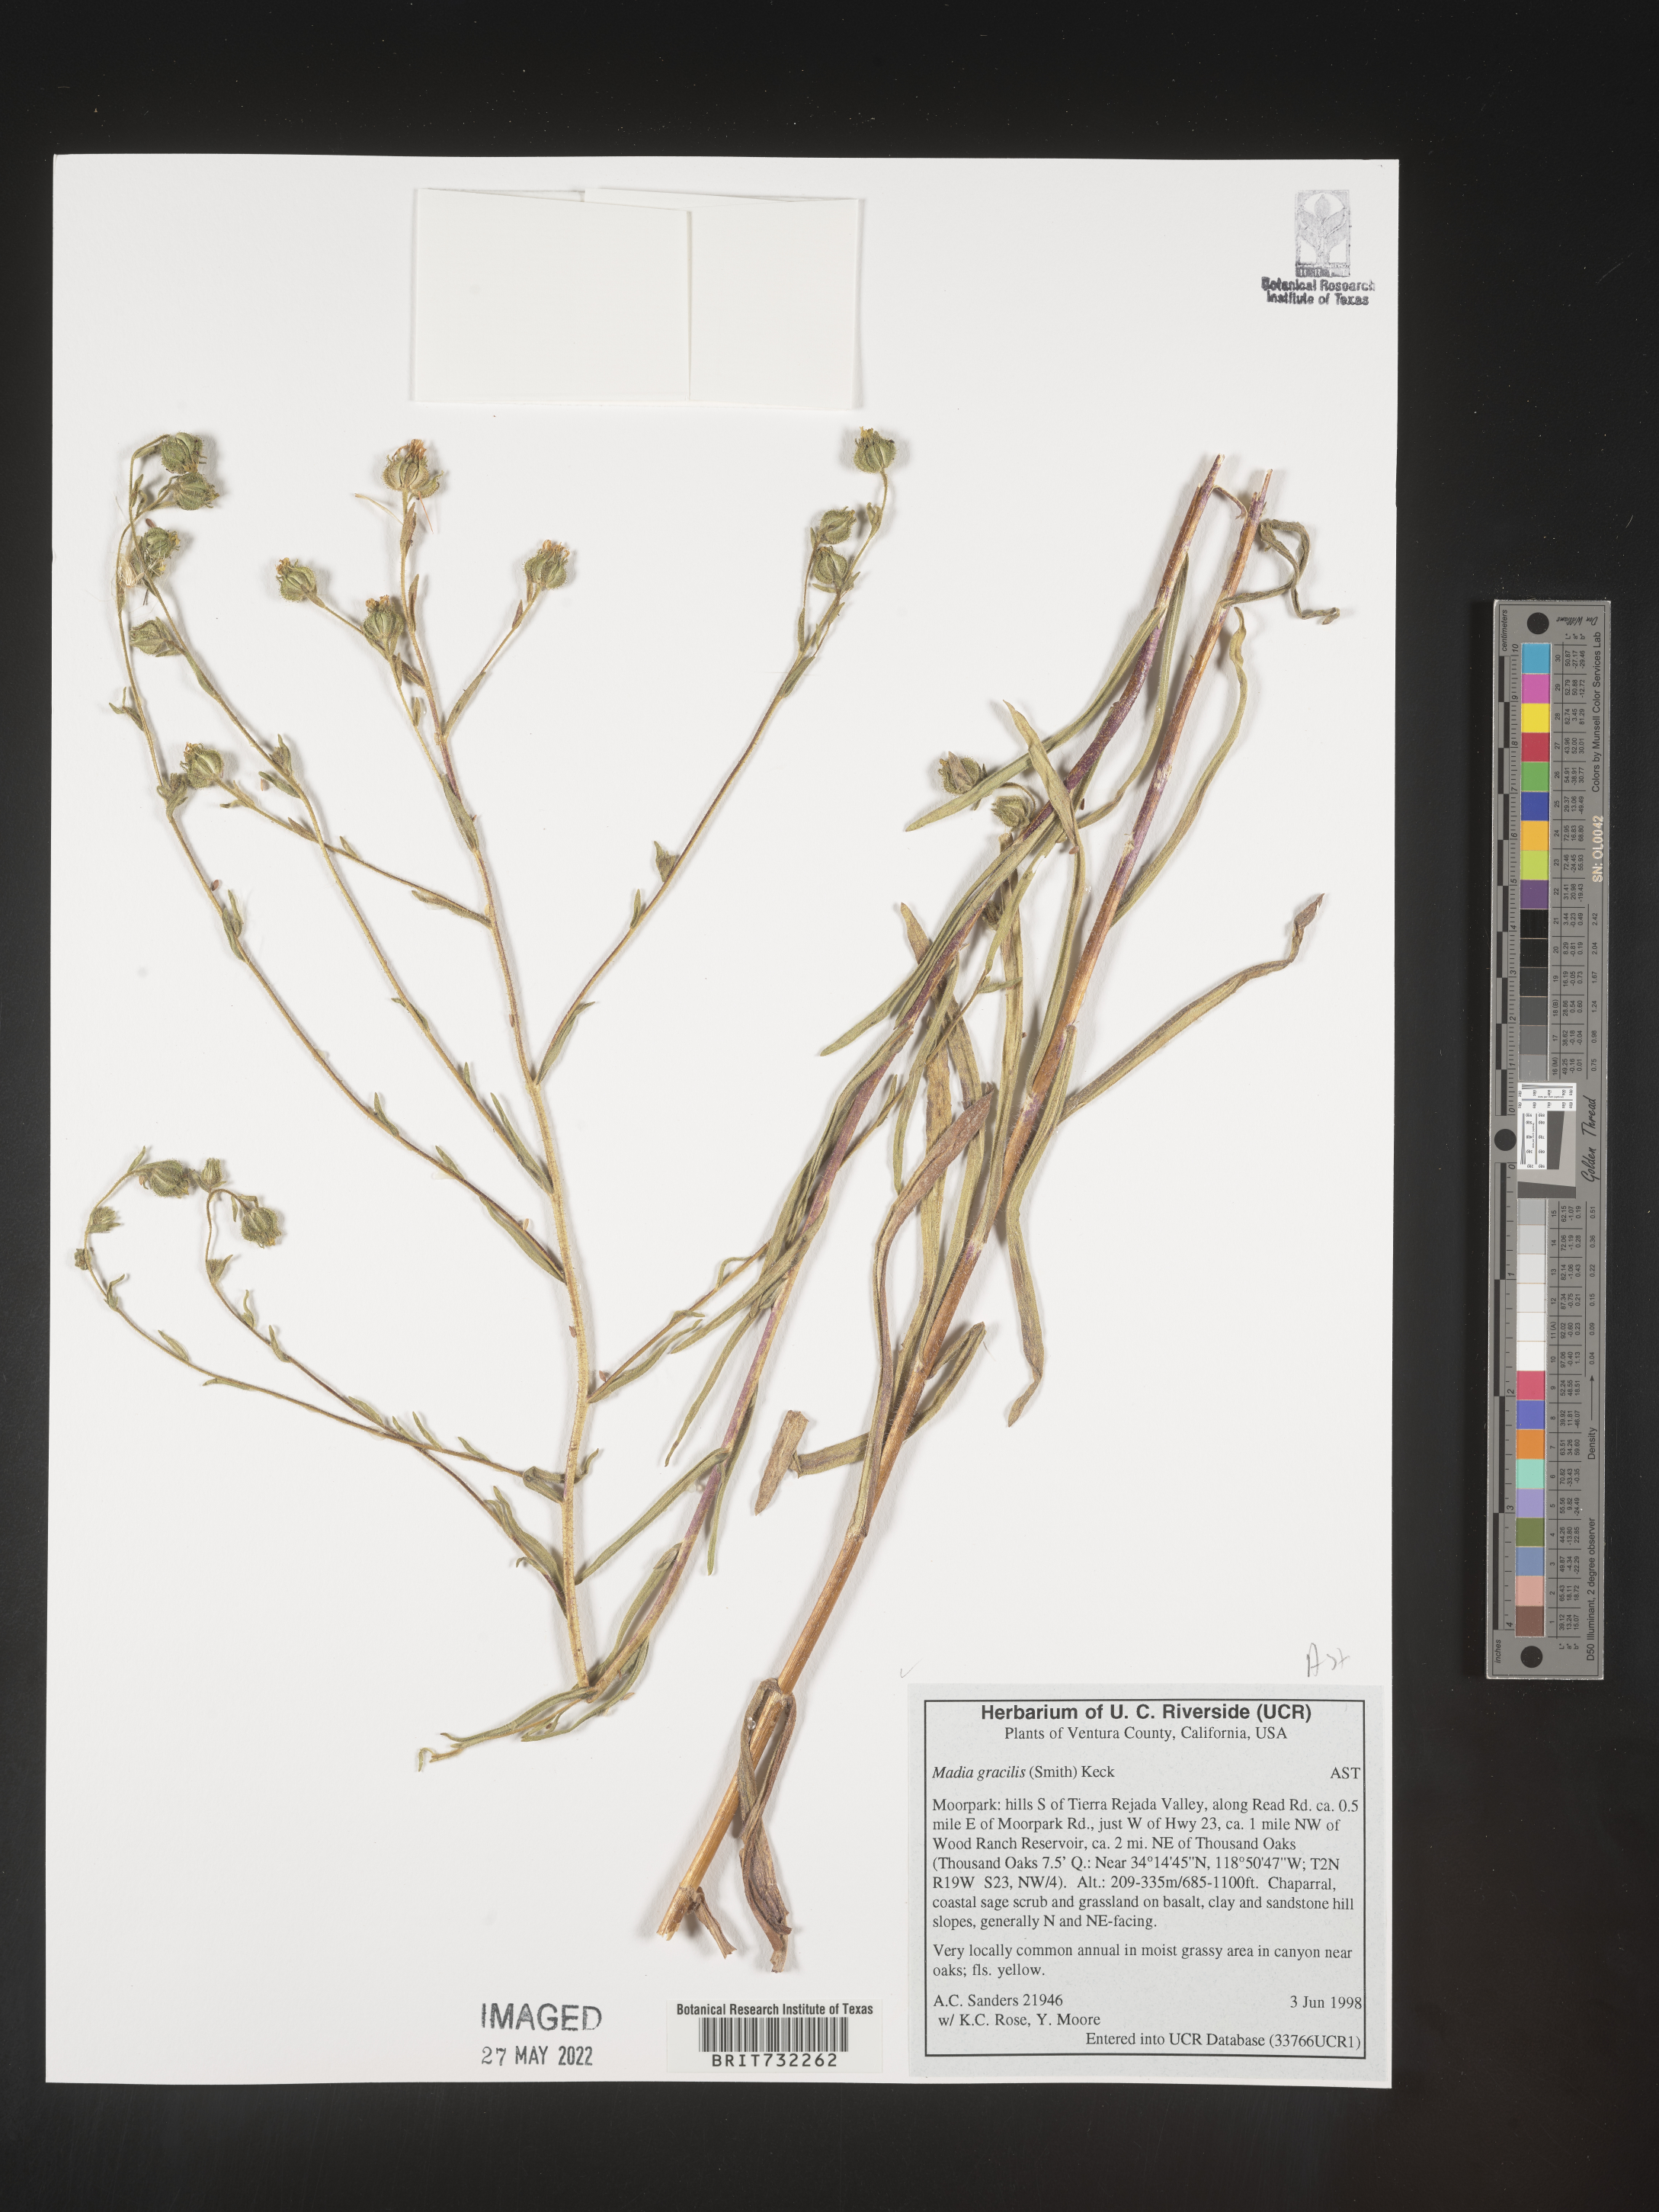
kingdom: Plantae
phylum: Tracheophyta
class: Magnoliopsida
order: Asterales
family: Asteraceae
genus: Madia
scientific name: Madia gracilis
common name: Grassy tarweed
